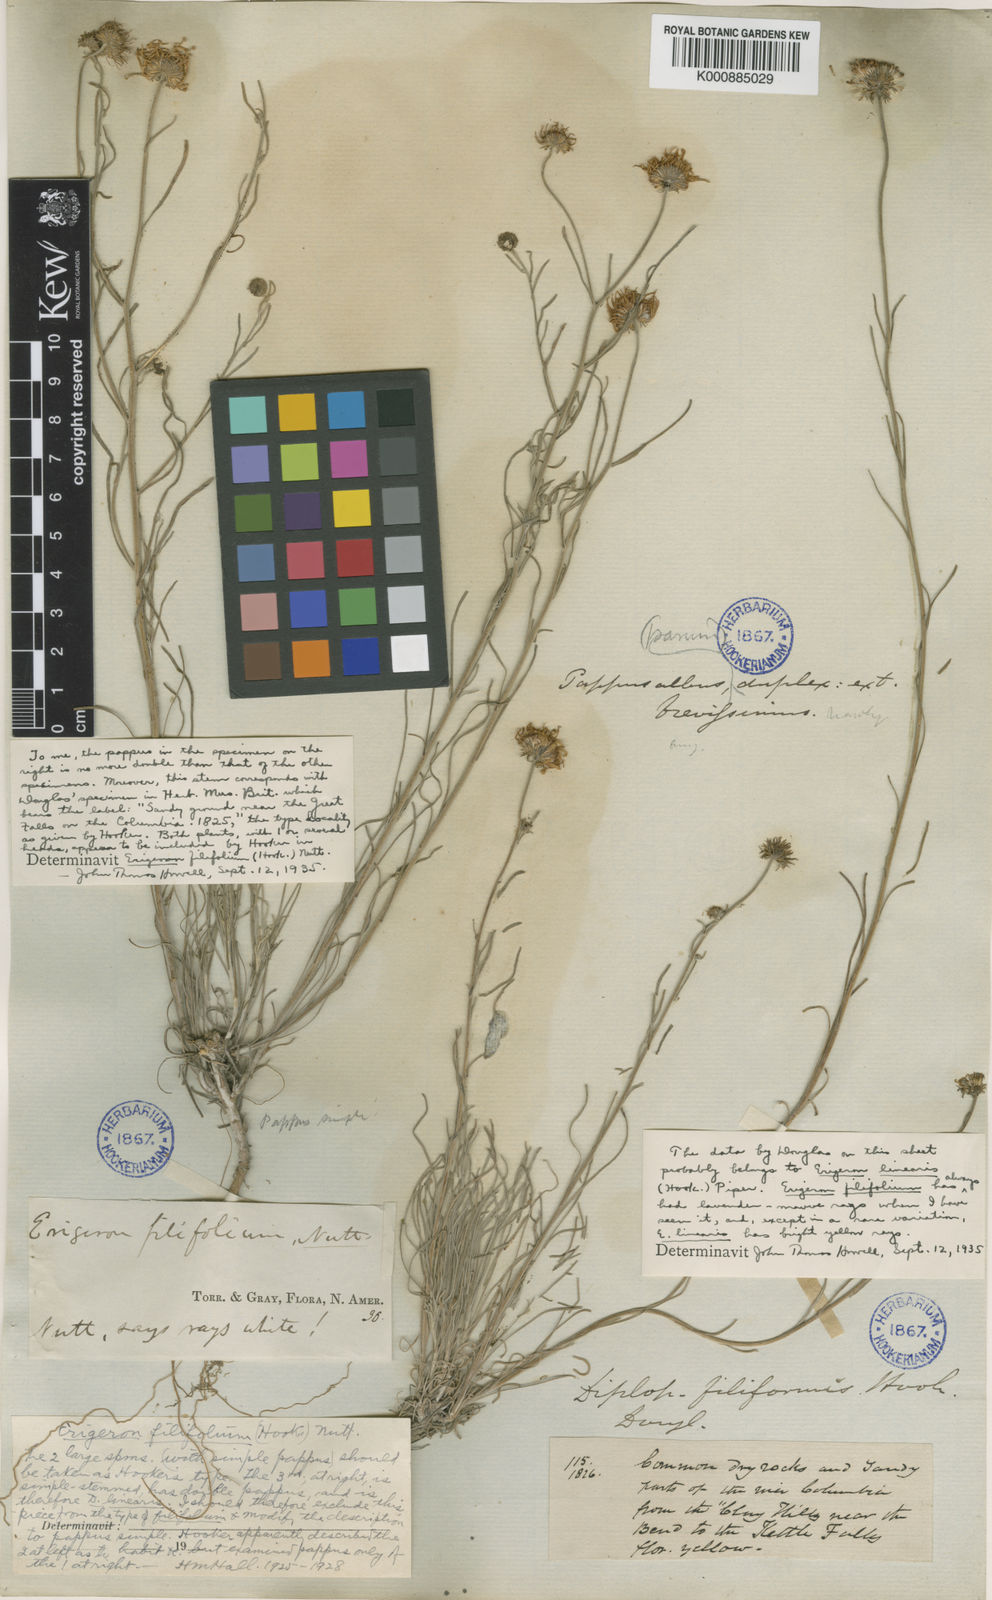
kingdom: Plantae
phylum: Tracheophyta
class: Magnoliopsida
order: Asterales
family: Asteraceae
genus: Erigeron
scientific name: Erigeron filifolius
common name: Threadleaf fleabane
